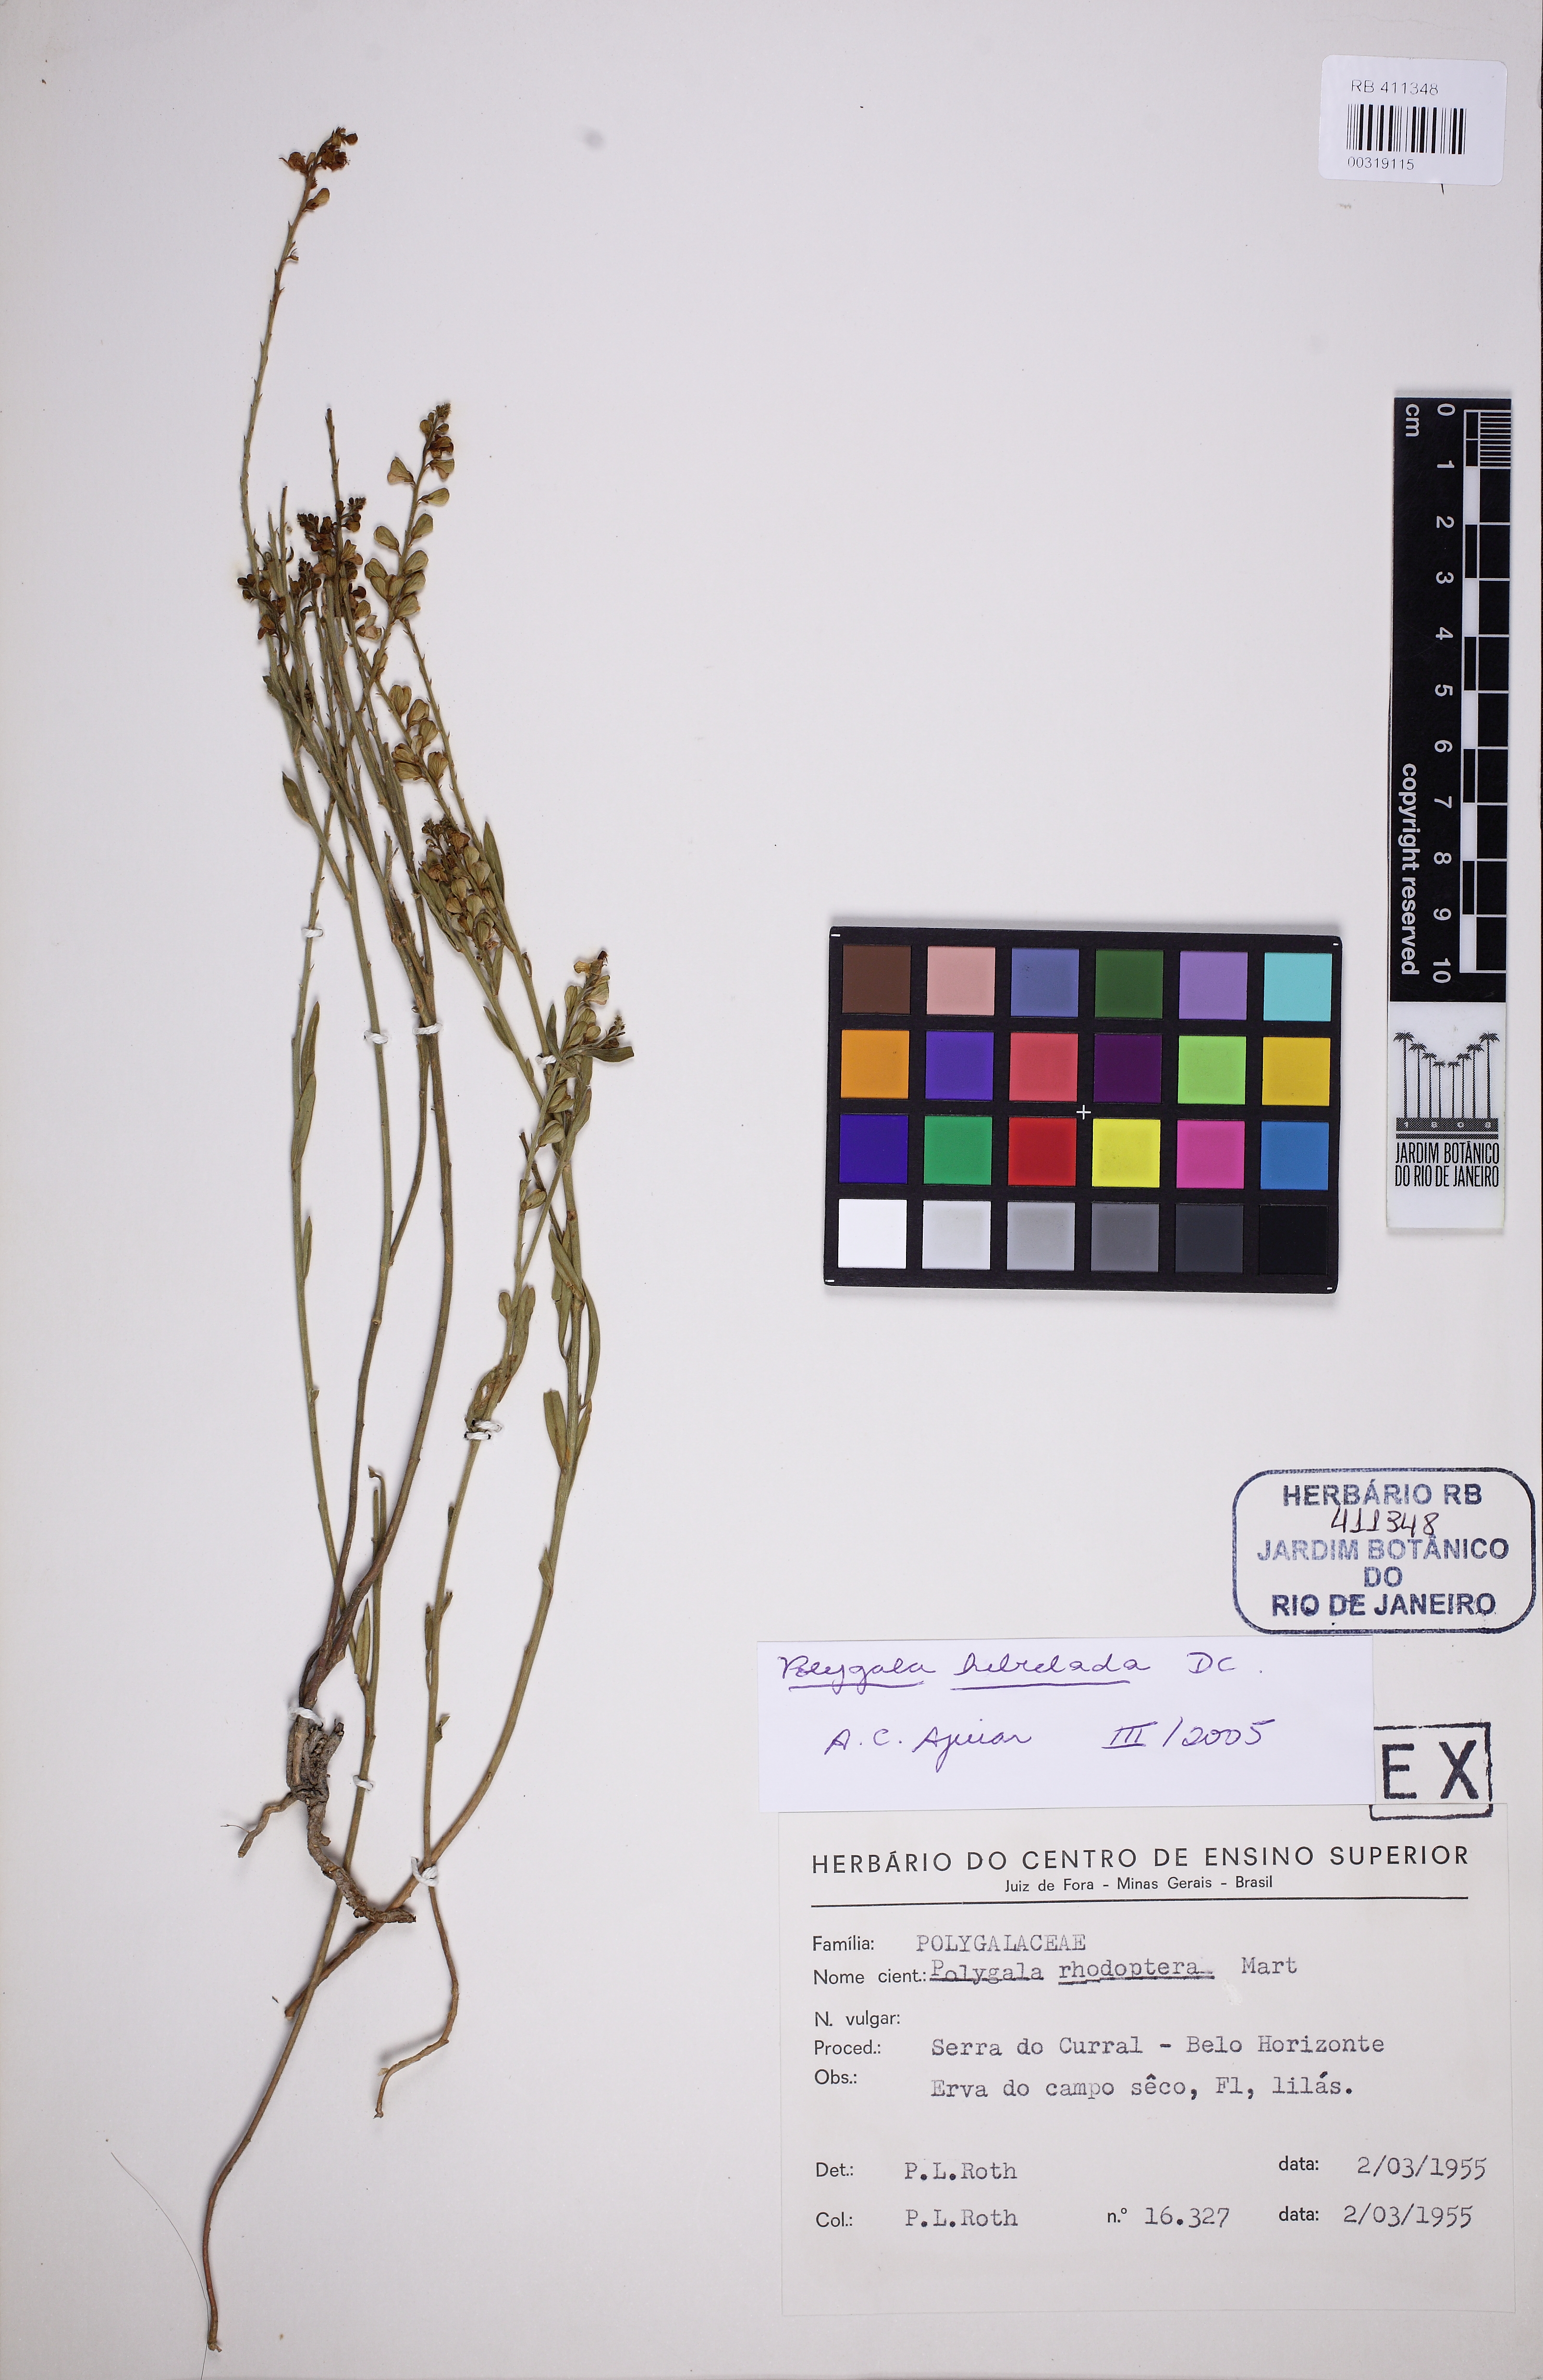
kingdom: Plantae
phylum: Tracheophyta
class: Magnoliopsida
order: Fabales
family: Polygalaceae
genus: Asemeia
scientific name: Asemeia hebeclada
